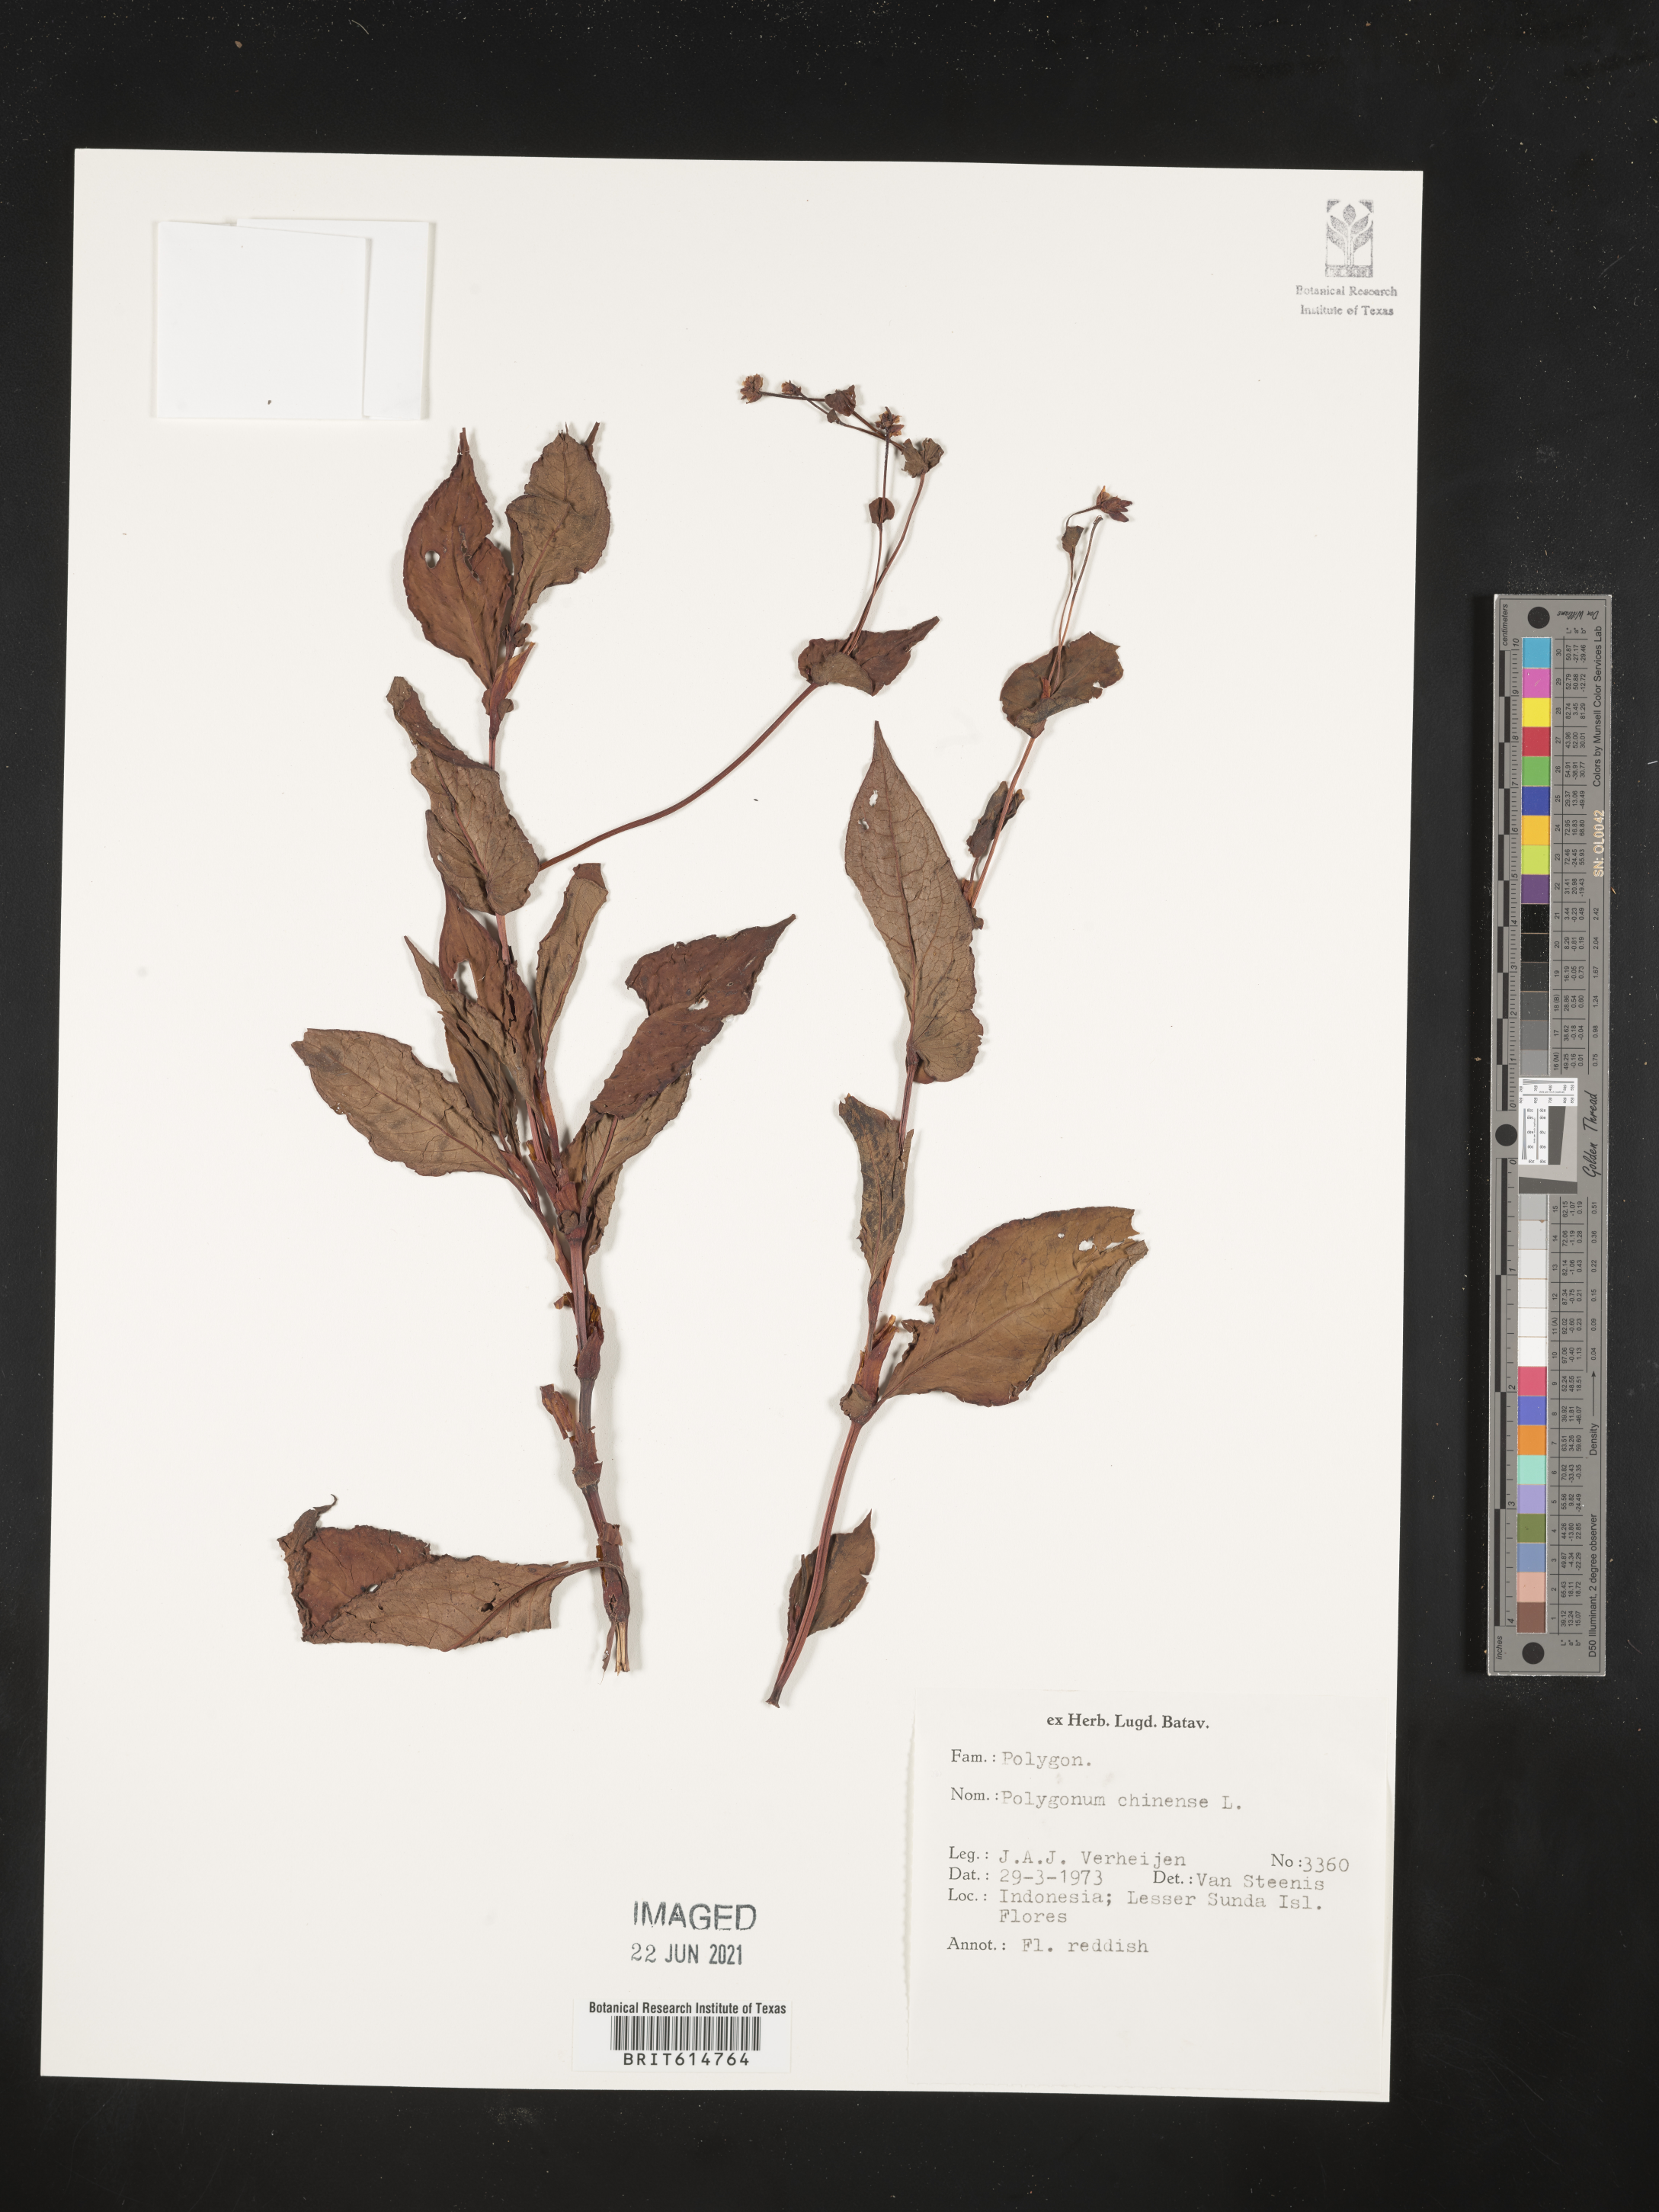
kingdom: Plantae
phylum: Tracheophyta
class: Magnoliopsida
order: Caryophyllales
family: Polygonaceae
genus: Persicaria
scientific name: Persicaria chinensis
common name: Chinese knotweed
